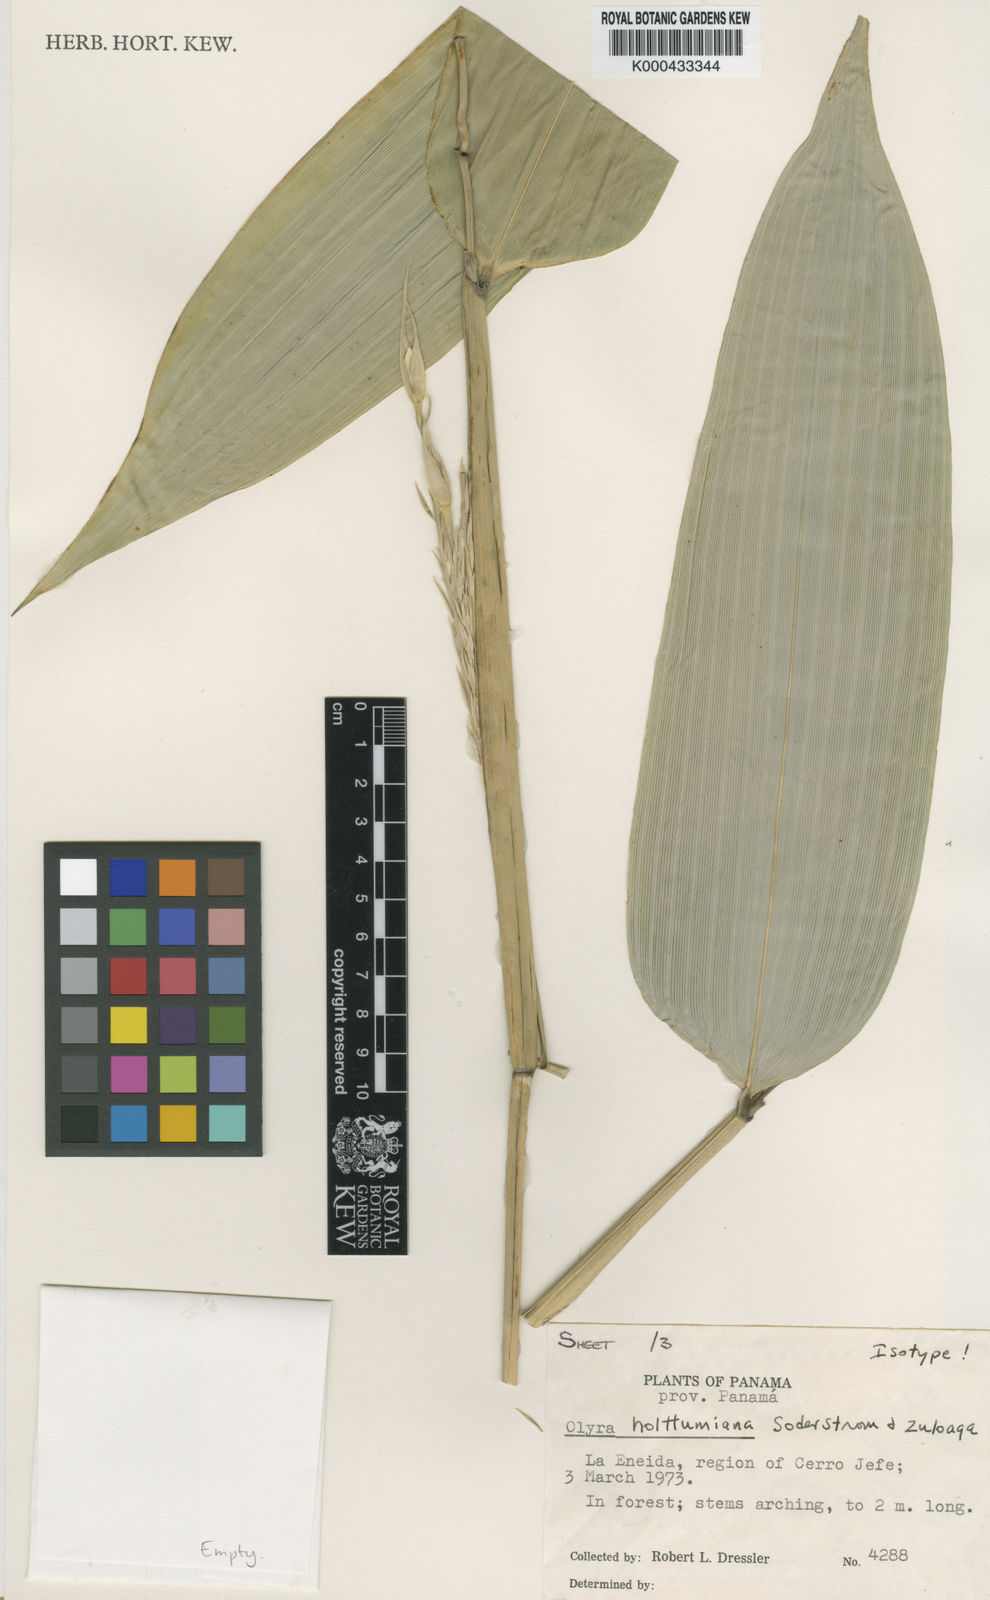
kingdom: Plantae
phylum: Tracheophyta
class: Liliopsida
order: Poales
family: Poaceae
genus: Olyra
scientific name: Olyra holttumiana
